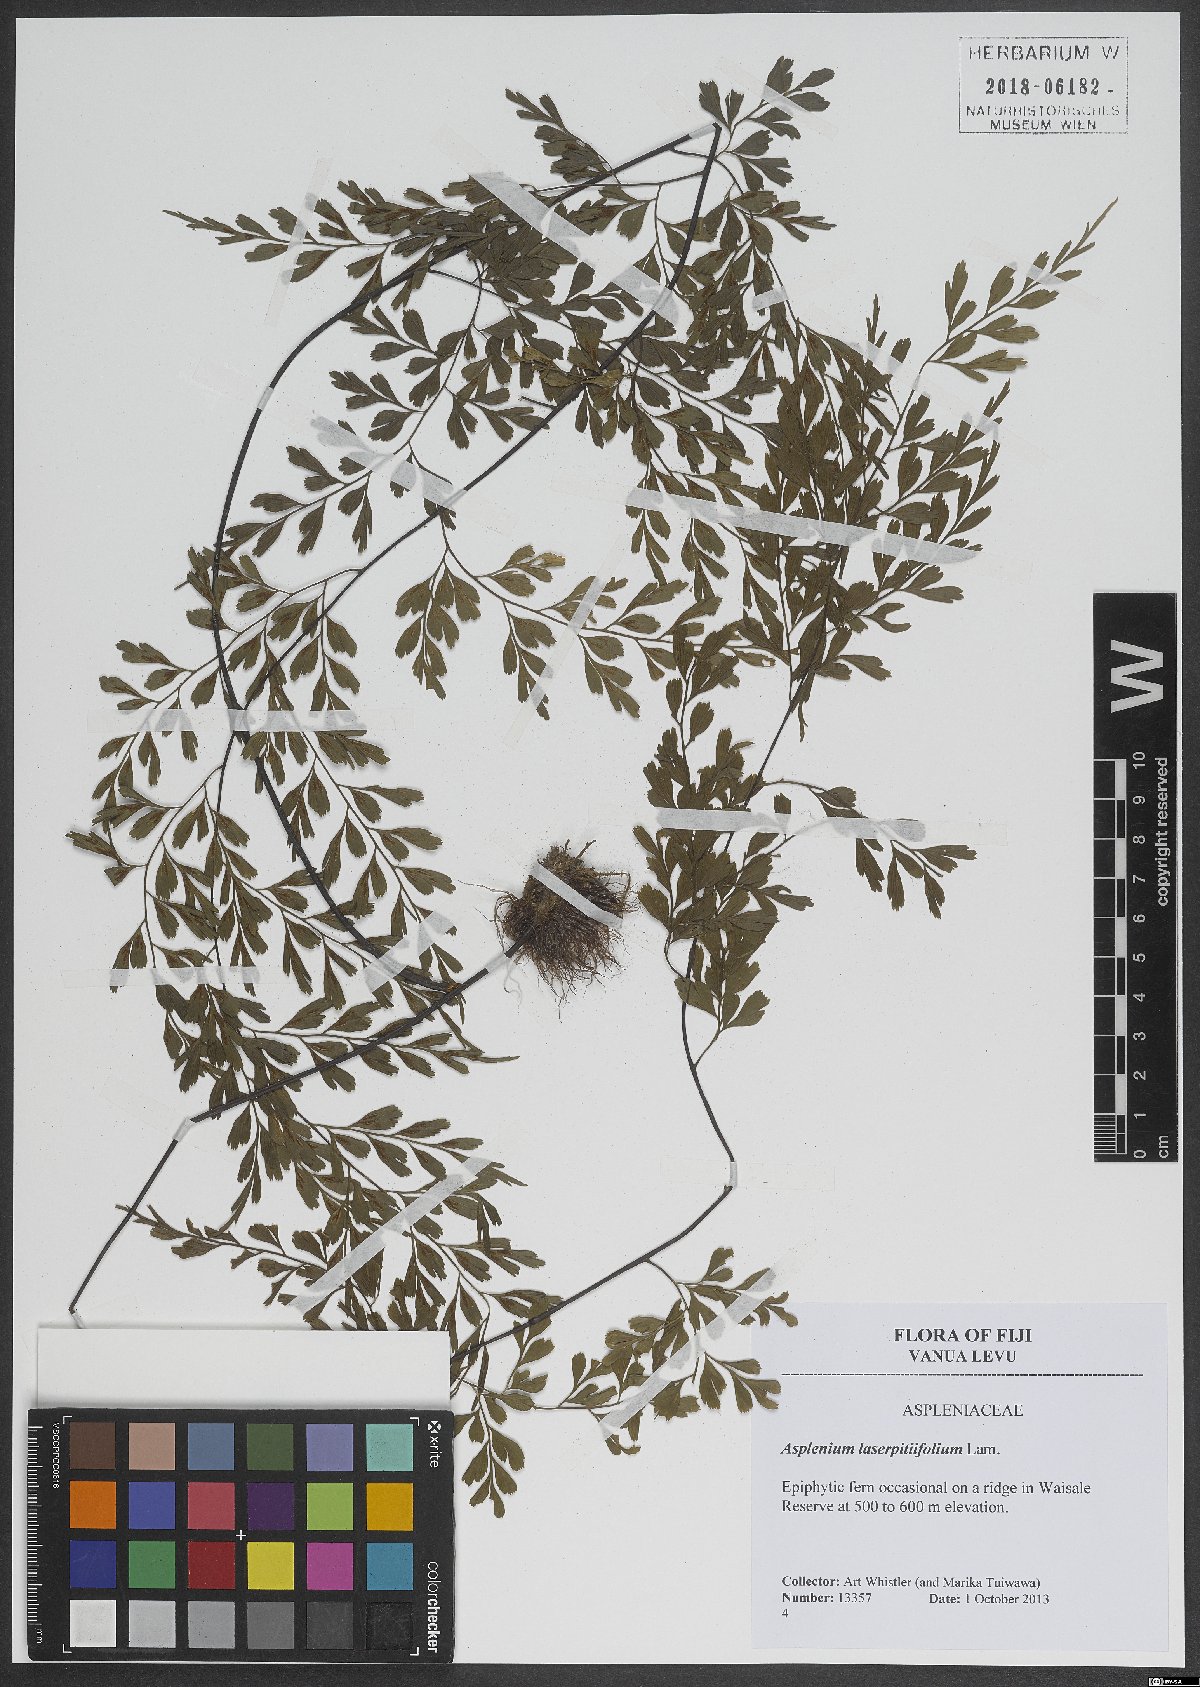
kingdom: Plantae
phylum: Tracheophyta
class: Polypodiopsida
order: Polypodiales
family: Aspleniaceae
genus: Asplenium
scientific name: Asplenium laserpitiifolium
